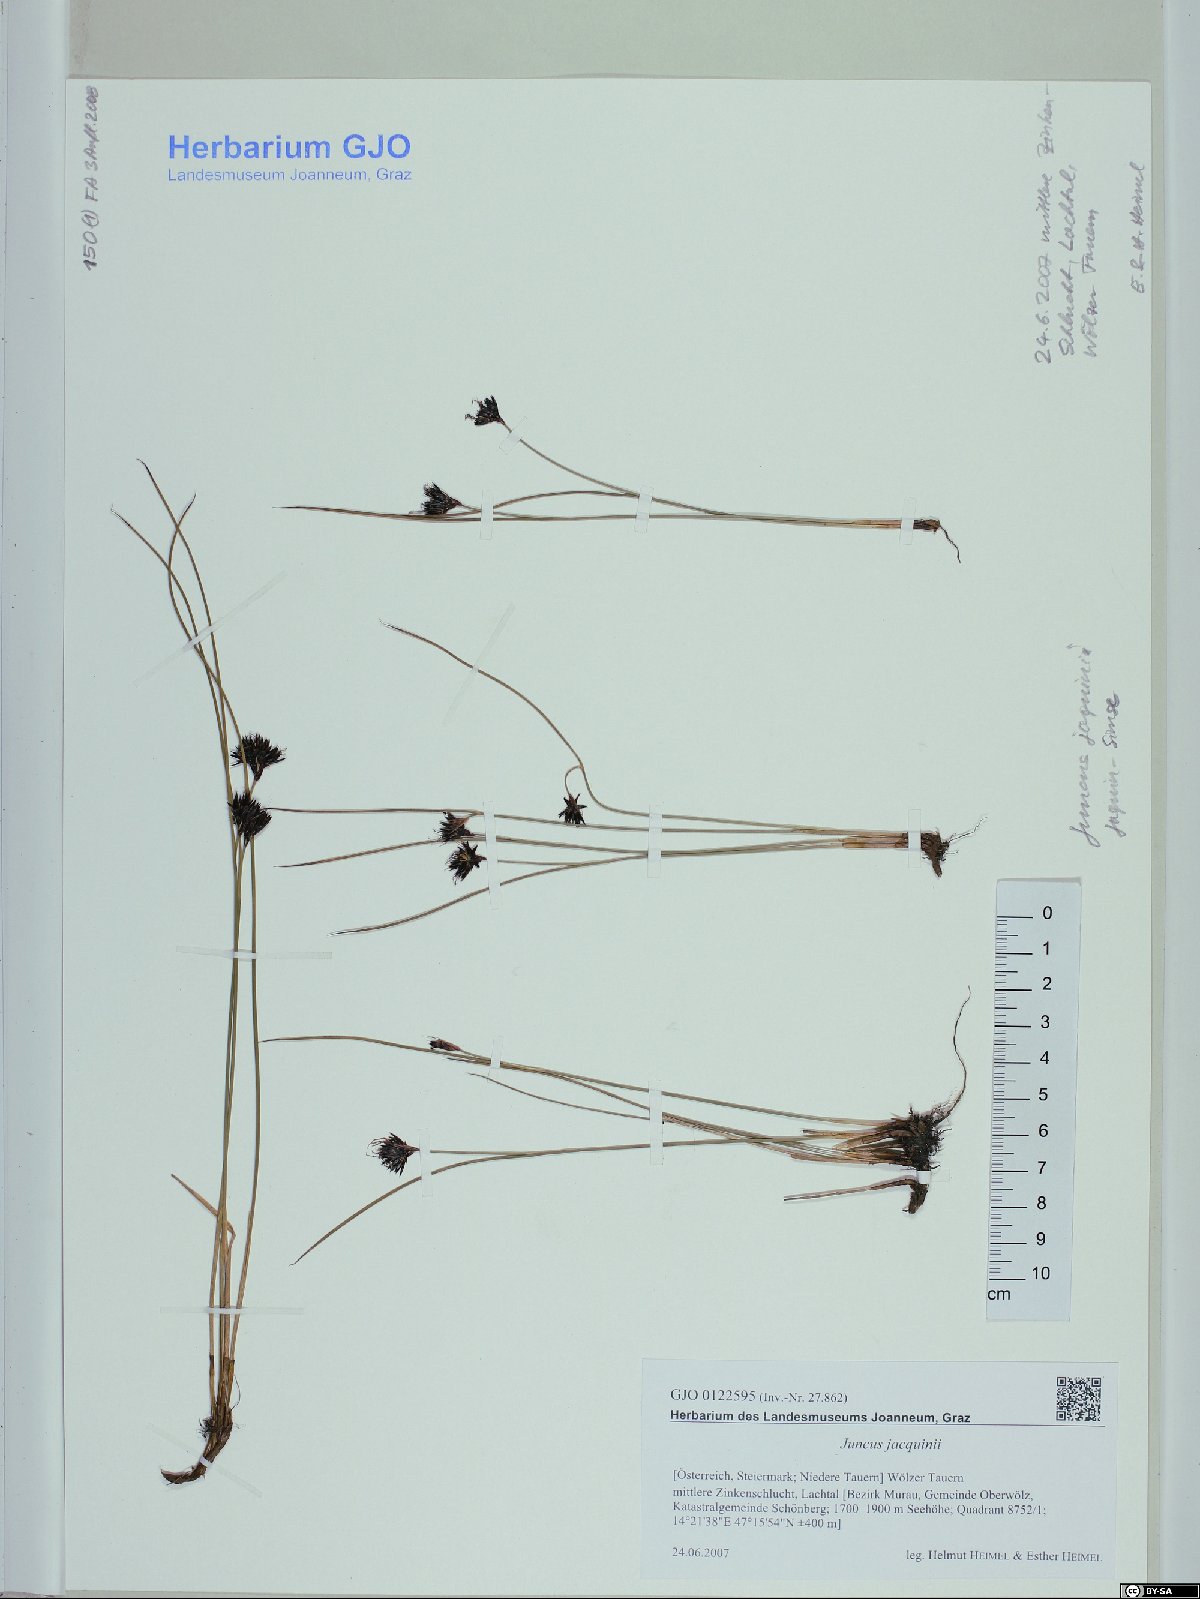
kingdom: Plantae
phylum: Tracheophyta
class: Liliopsida
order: Poales
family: Juncaceae
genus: Juncus
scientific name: Juncus jacquinii
